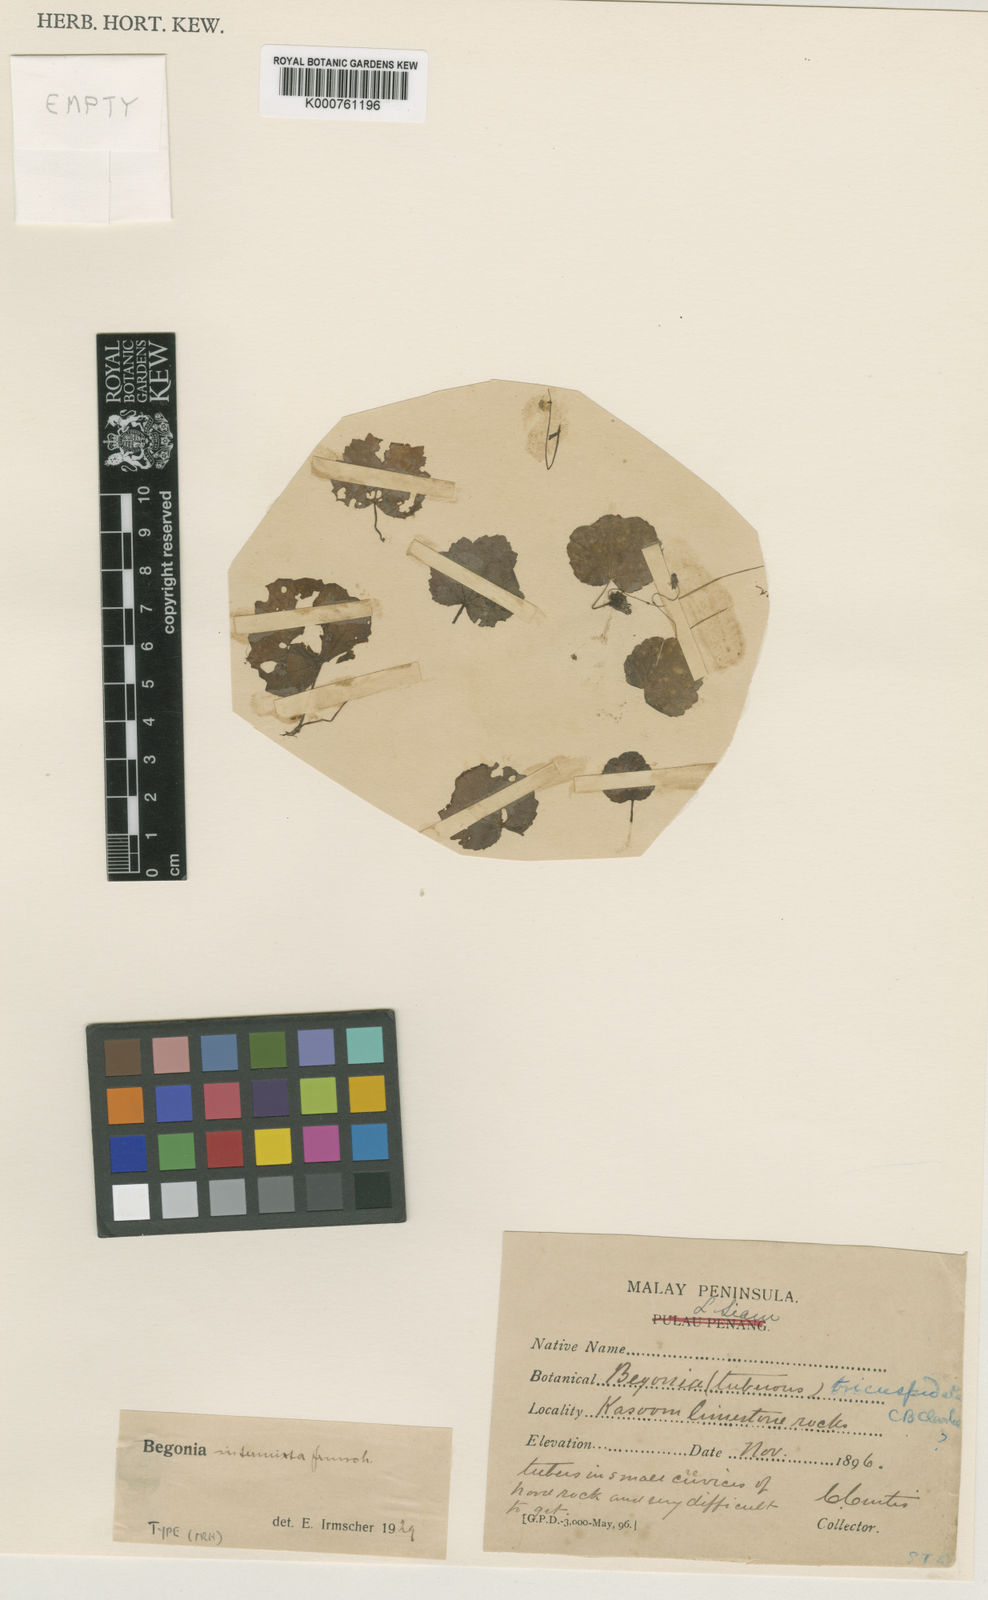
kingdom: Plantae
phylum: Tracheophyta
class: Magnoliopsida
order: Cucurbitales
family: Begoniaceae
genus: Begonia
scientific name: Begonia incerta
